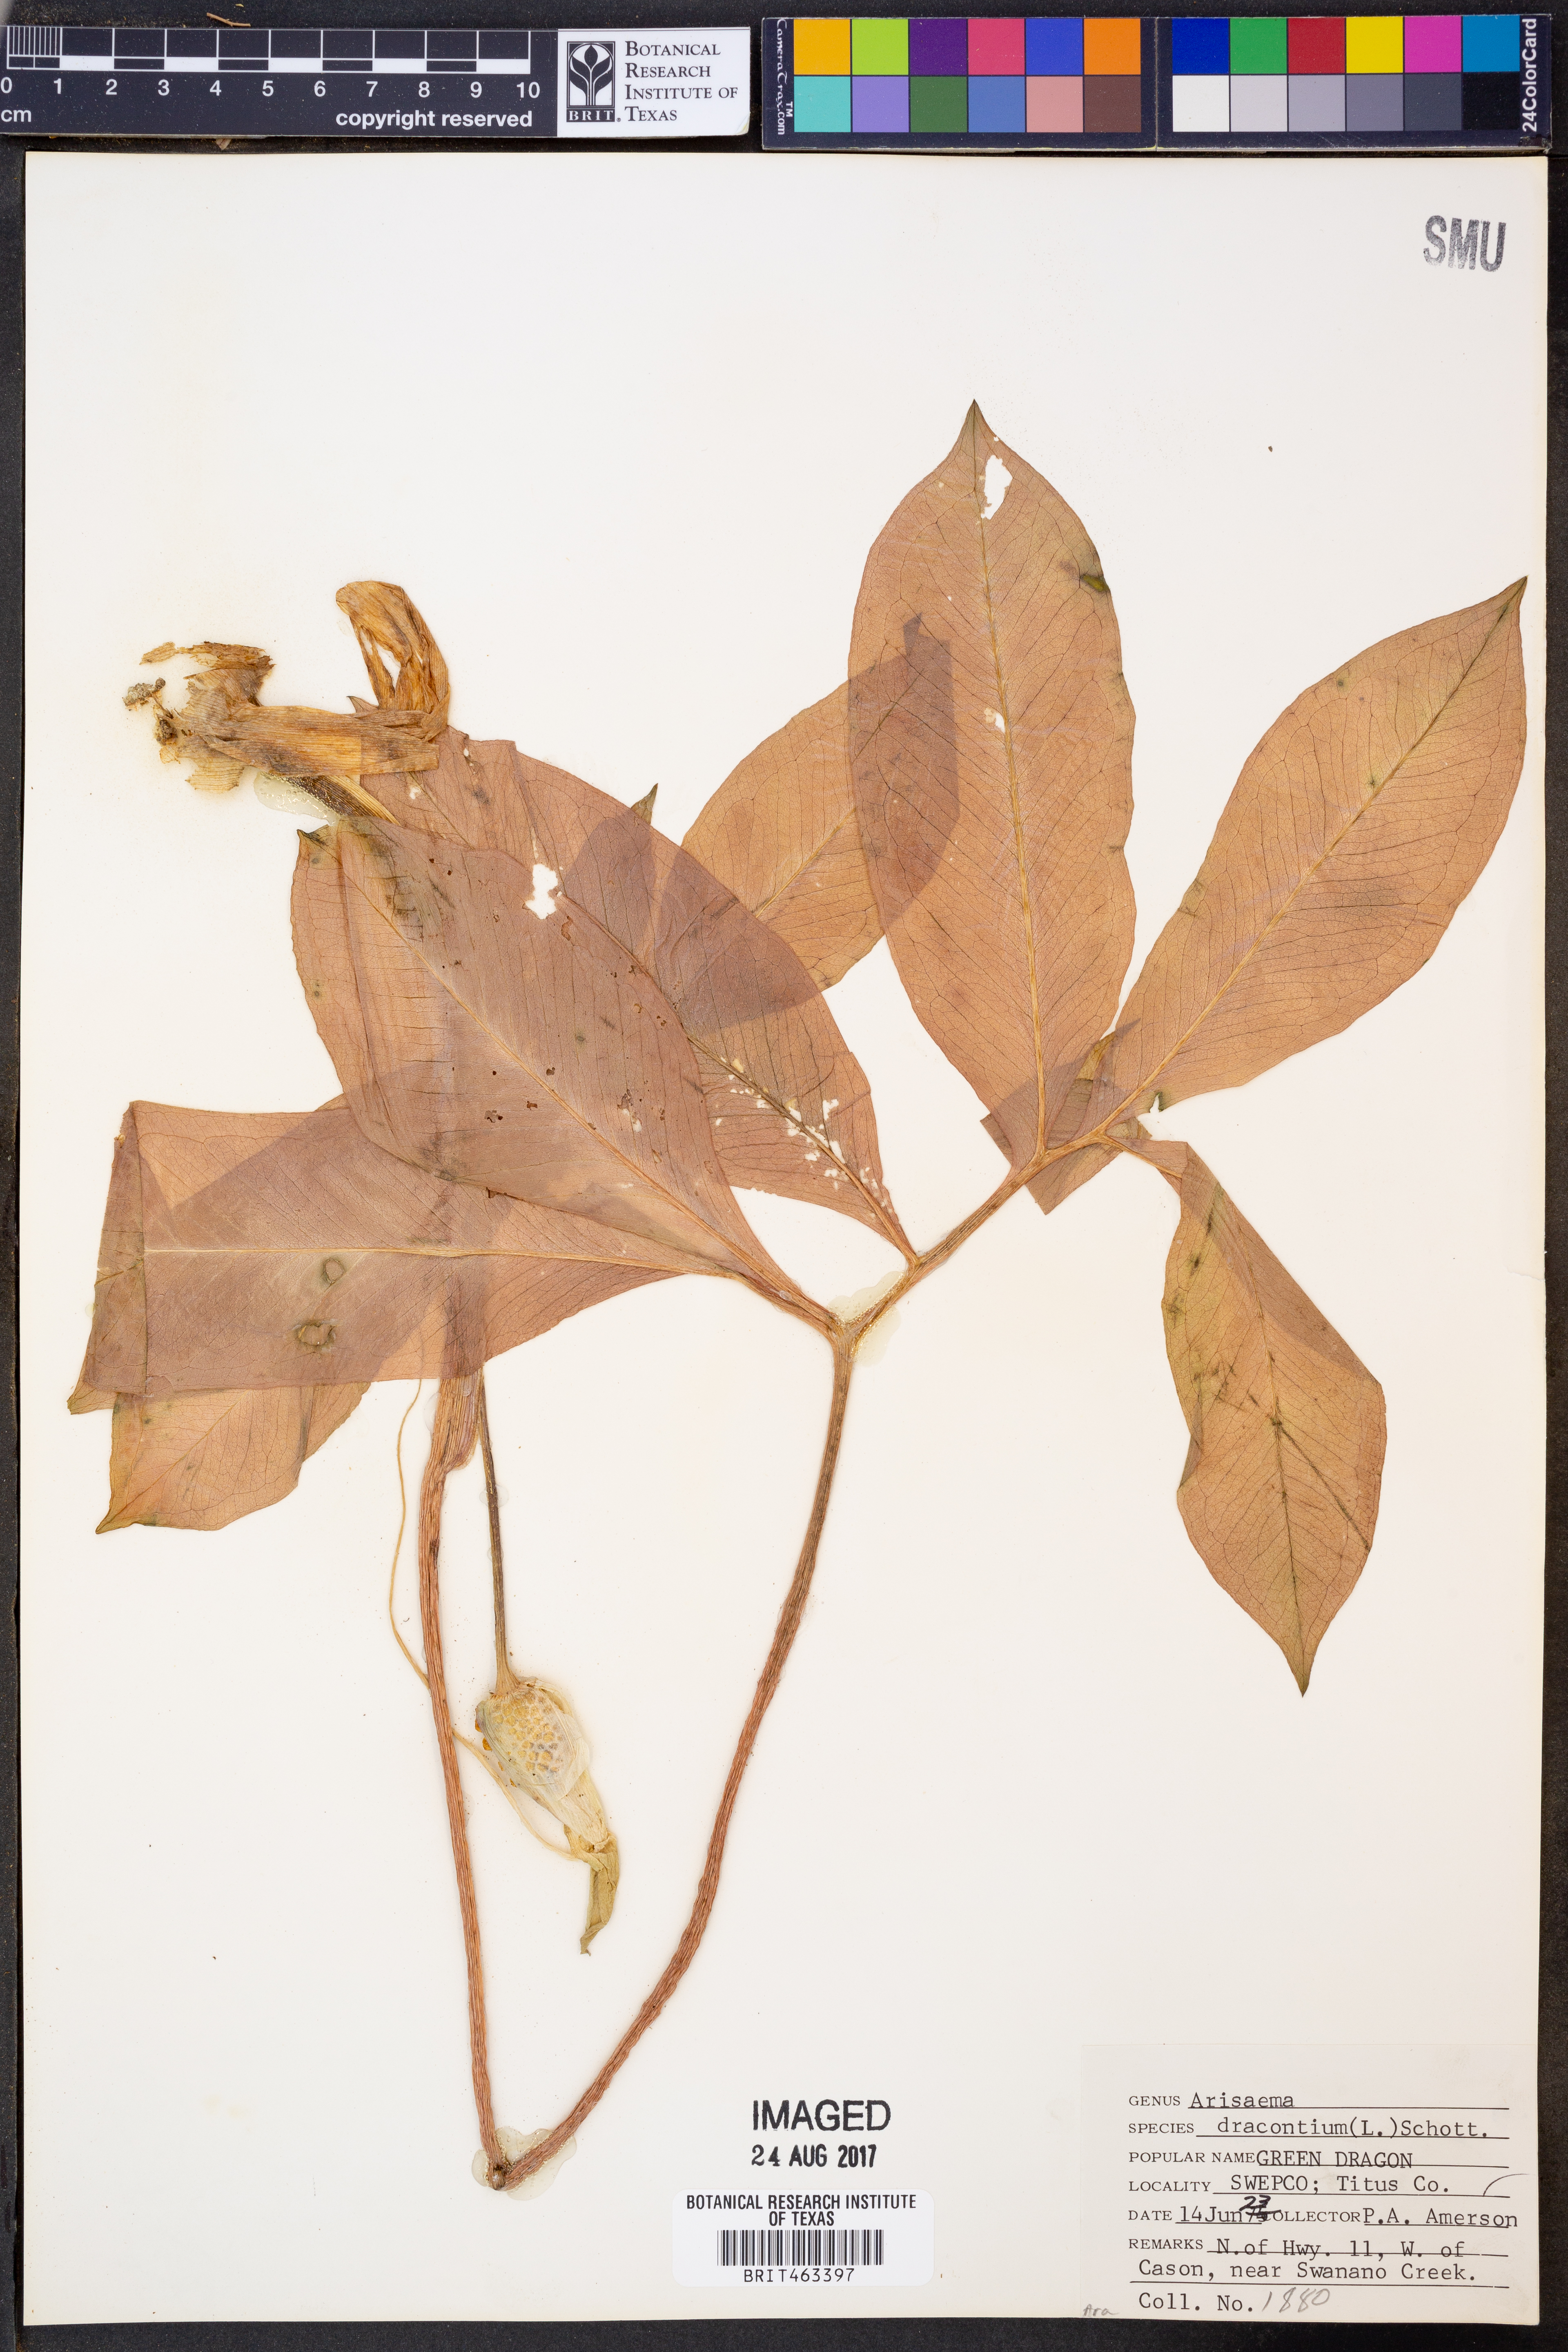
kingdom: Plantae
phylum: Tracheophyta
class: Liliopsida
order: Alismatales
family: Araceae
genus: Arisaema
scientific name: Arisaema dracontium
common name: Dragon-arum
